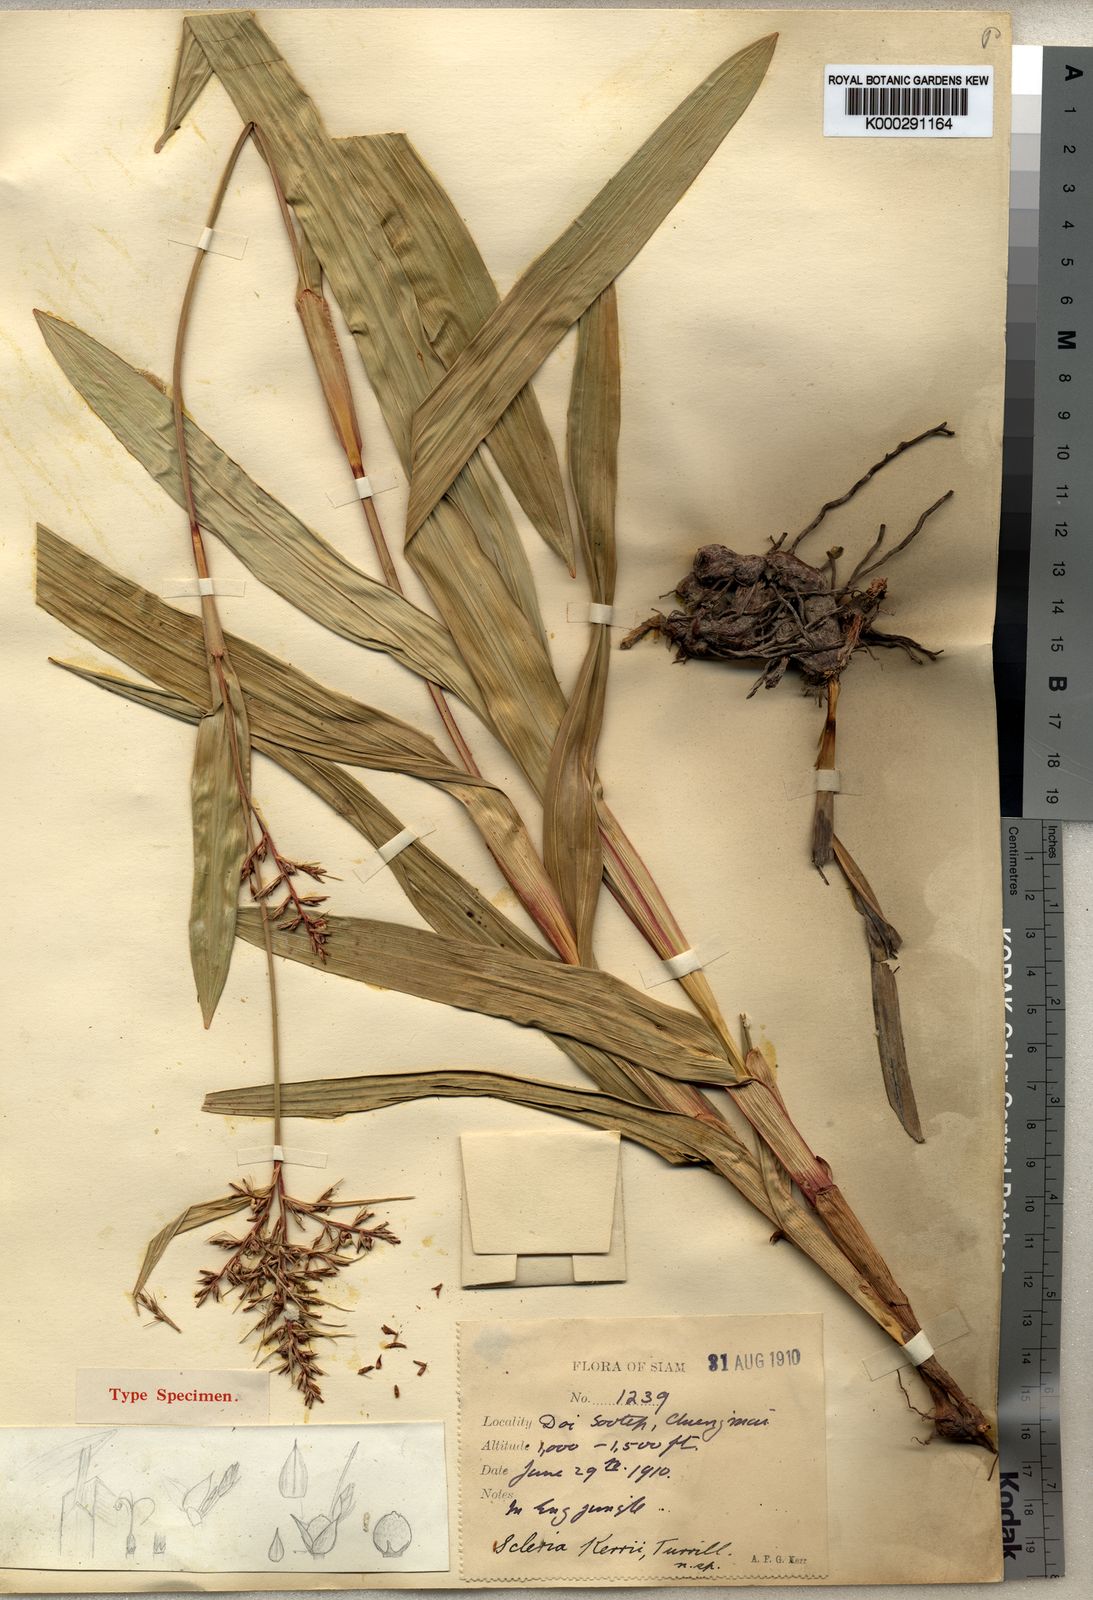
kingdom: Plantae
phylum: Tracheophyta
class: Liliopsida
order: Poales
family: Cyperaceae
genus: Scleria
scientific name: Scleria kerrii
